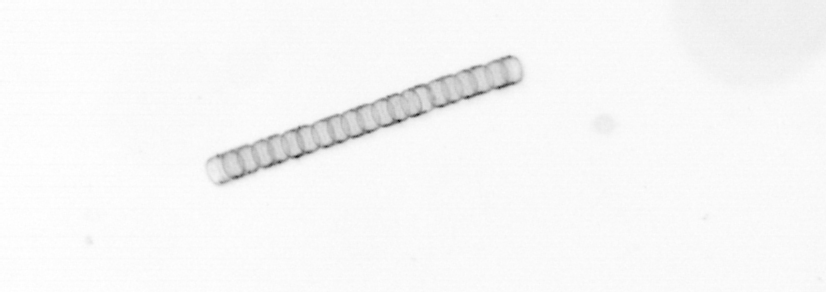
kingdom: Chromista
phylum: Ochrophyta
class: Bacillariophyceae
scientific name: Bacillariophyceae
